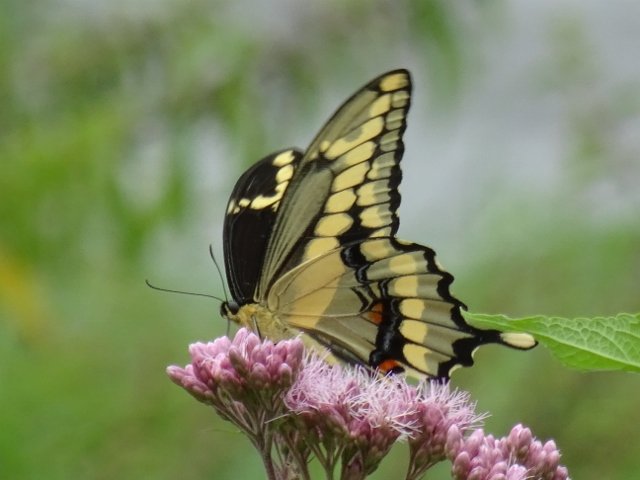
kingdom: Animalia
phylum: Arthropoda
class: Insecta
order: Lepidoptera
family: Papilionidae
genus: Papilio
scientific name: Papilio cresphontes
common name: Eastern Giant Swallowtail
